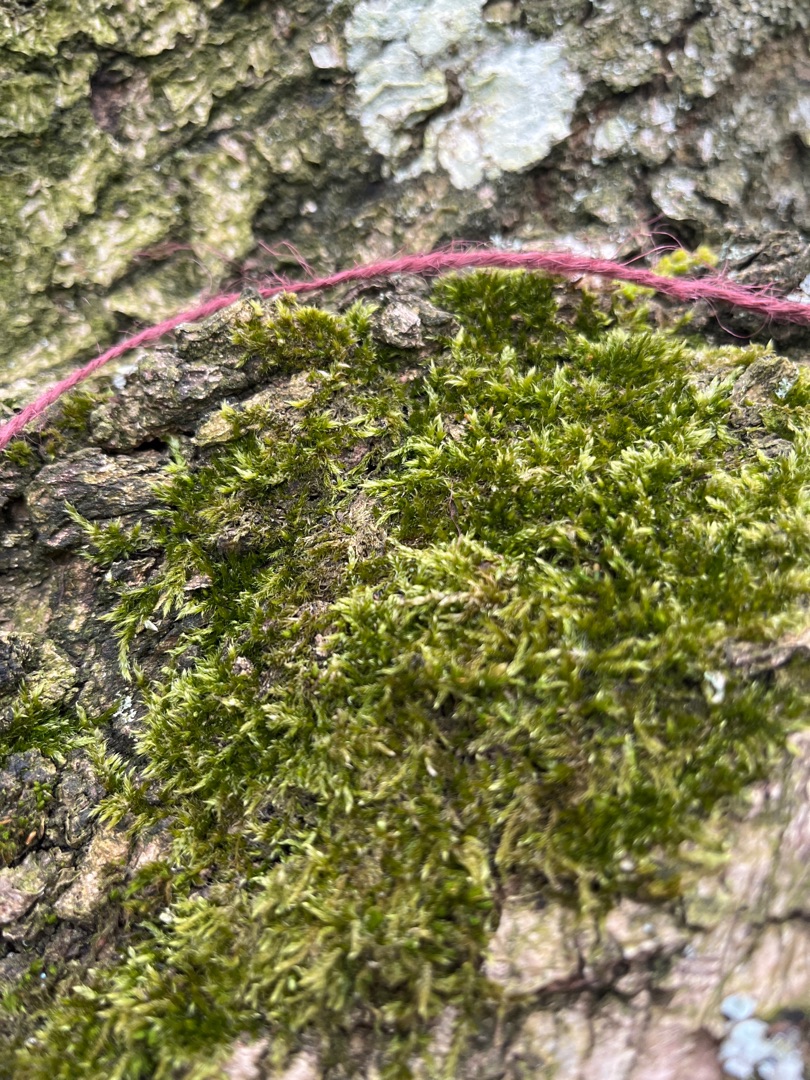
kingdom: Plantae
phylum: Bryophyta
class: Bryopsida
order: Hypnales
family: Hypnaceae
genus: Hypnum
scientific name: Hypnum
